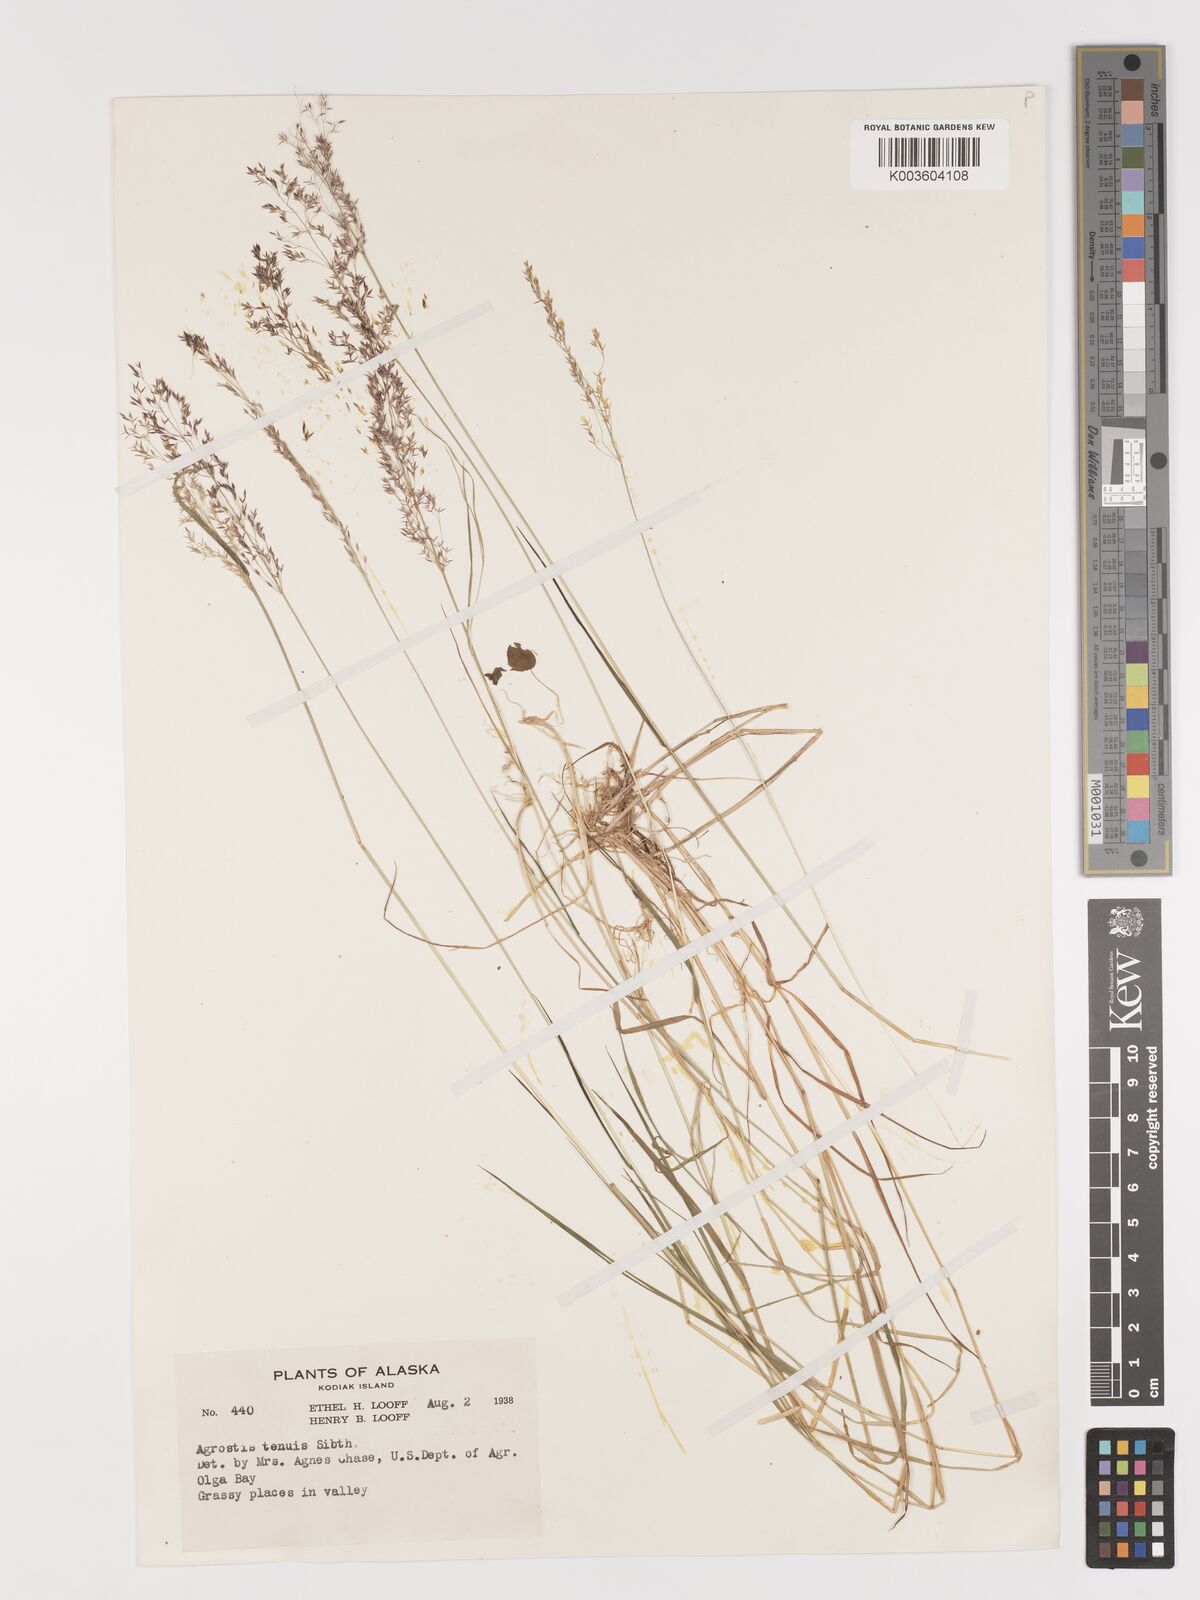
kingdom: Plantae
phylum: Tracheophyta
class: Liliopsida
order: Poales
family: Poaceae
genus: Agrostis
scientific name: Agrostis capillaris
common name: Colonial bentgrass
